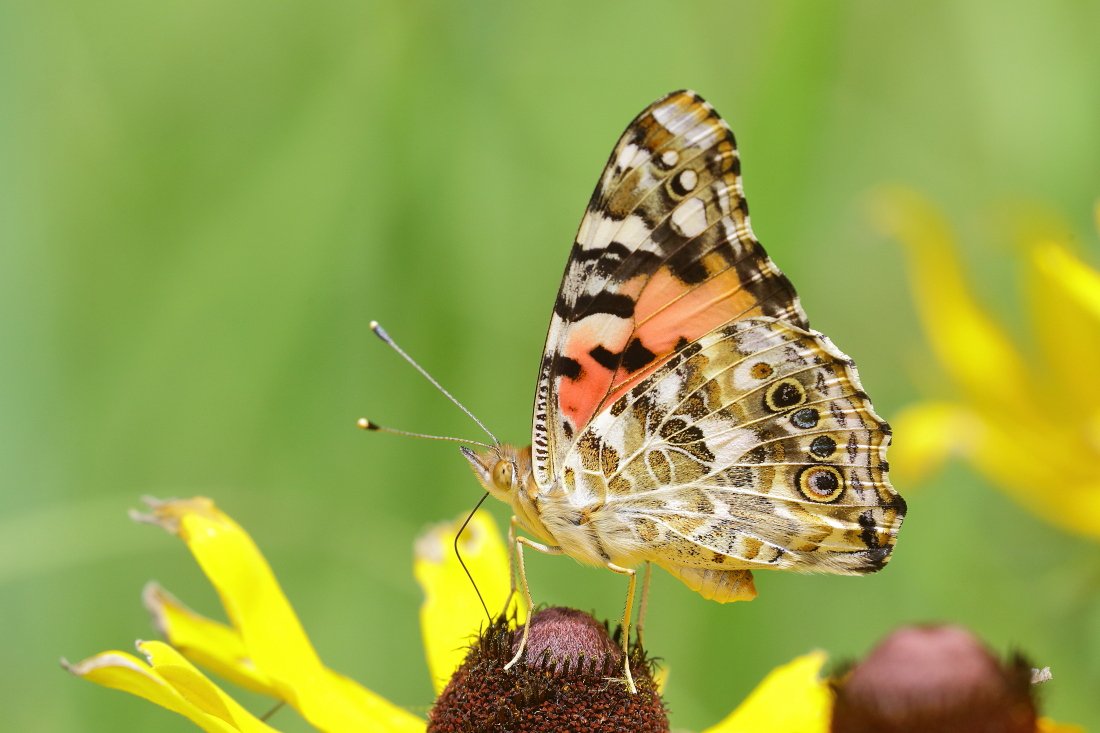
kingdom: Animalia
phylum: Arthropoda
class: Insecta
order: Lepidoptera
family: Nymphalidae
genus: Vanessa
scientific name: Vanessa cardui
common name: Painted Lady
